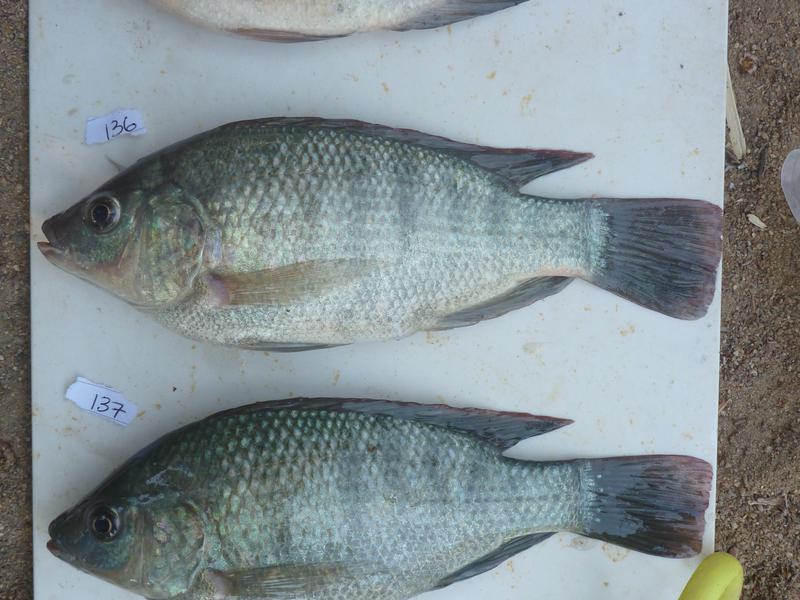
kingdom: Animalia
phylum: Chordata
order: Perciformes
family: Cichlidae
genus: Oreochromis
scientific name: Oreochromis
